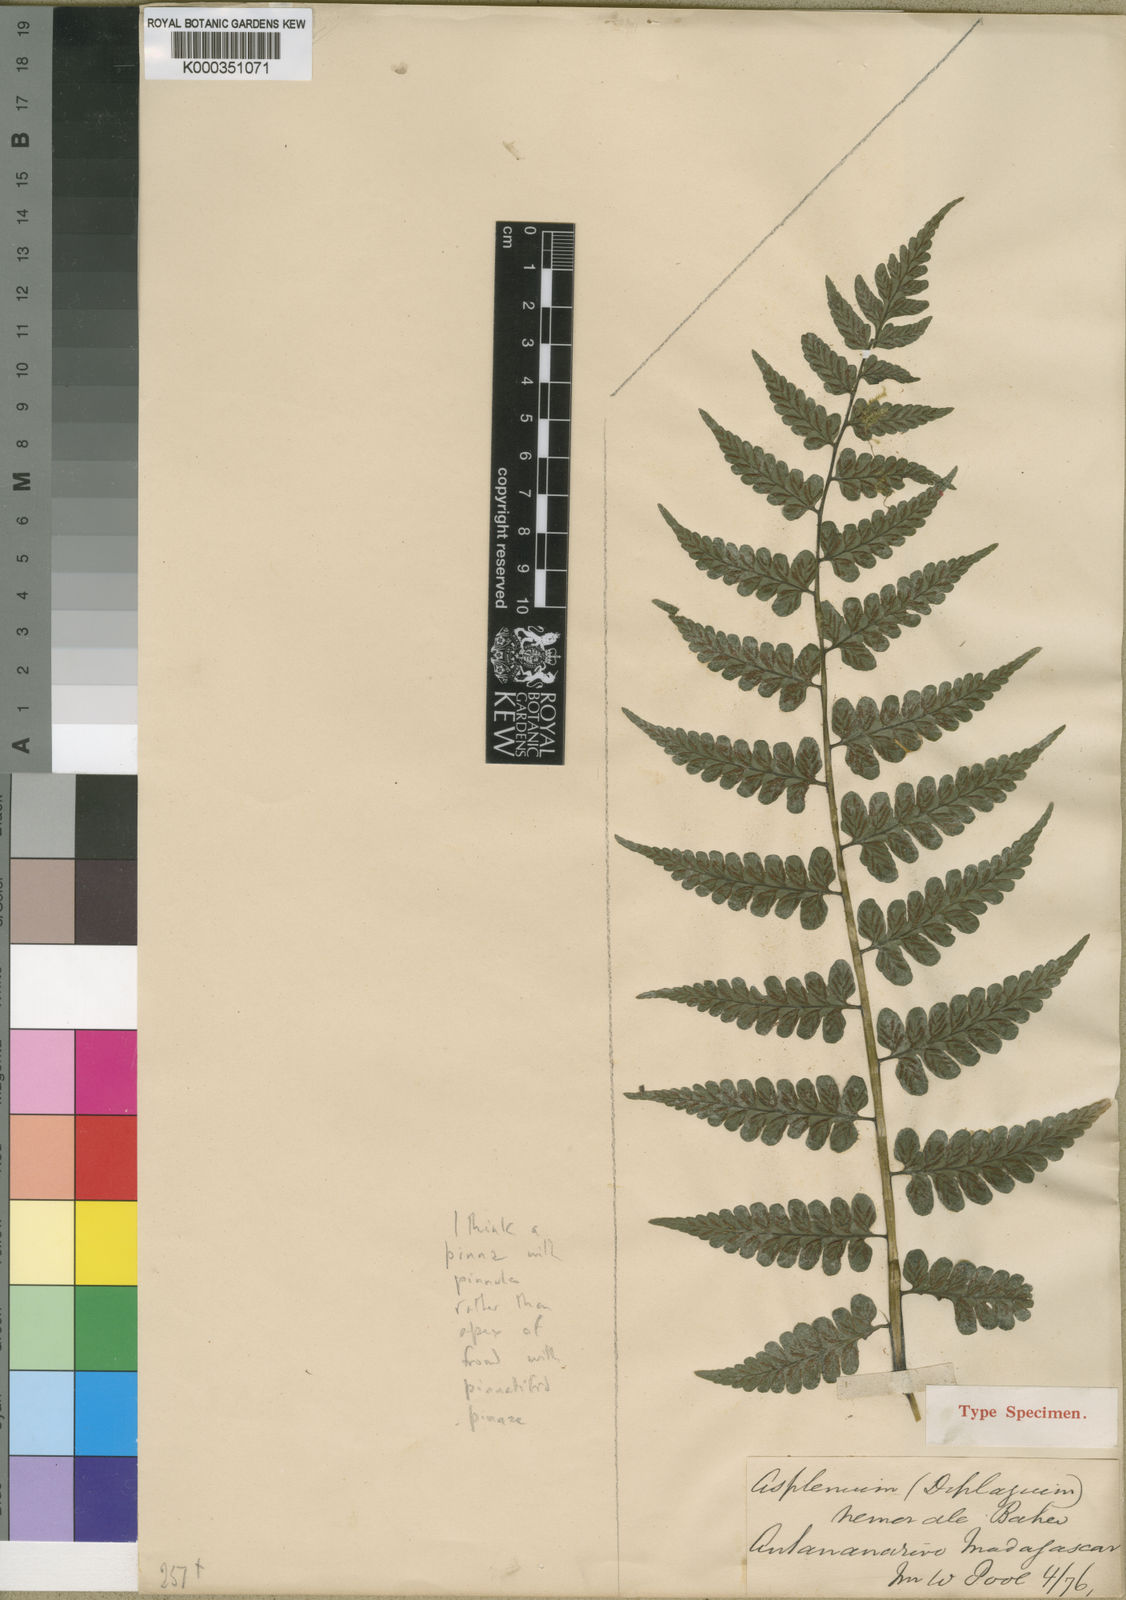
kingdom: Plantae
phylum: Tracheophyta
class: Polypodiopsida
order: Polypodiales
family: Athyriaceae
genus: Diplazium
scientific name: Diplazium arborescens
